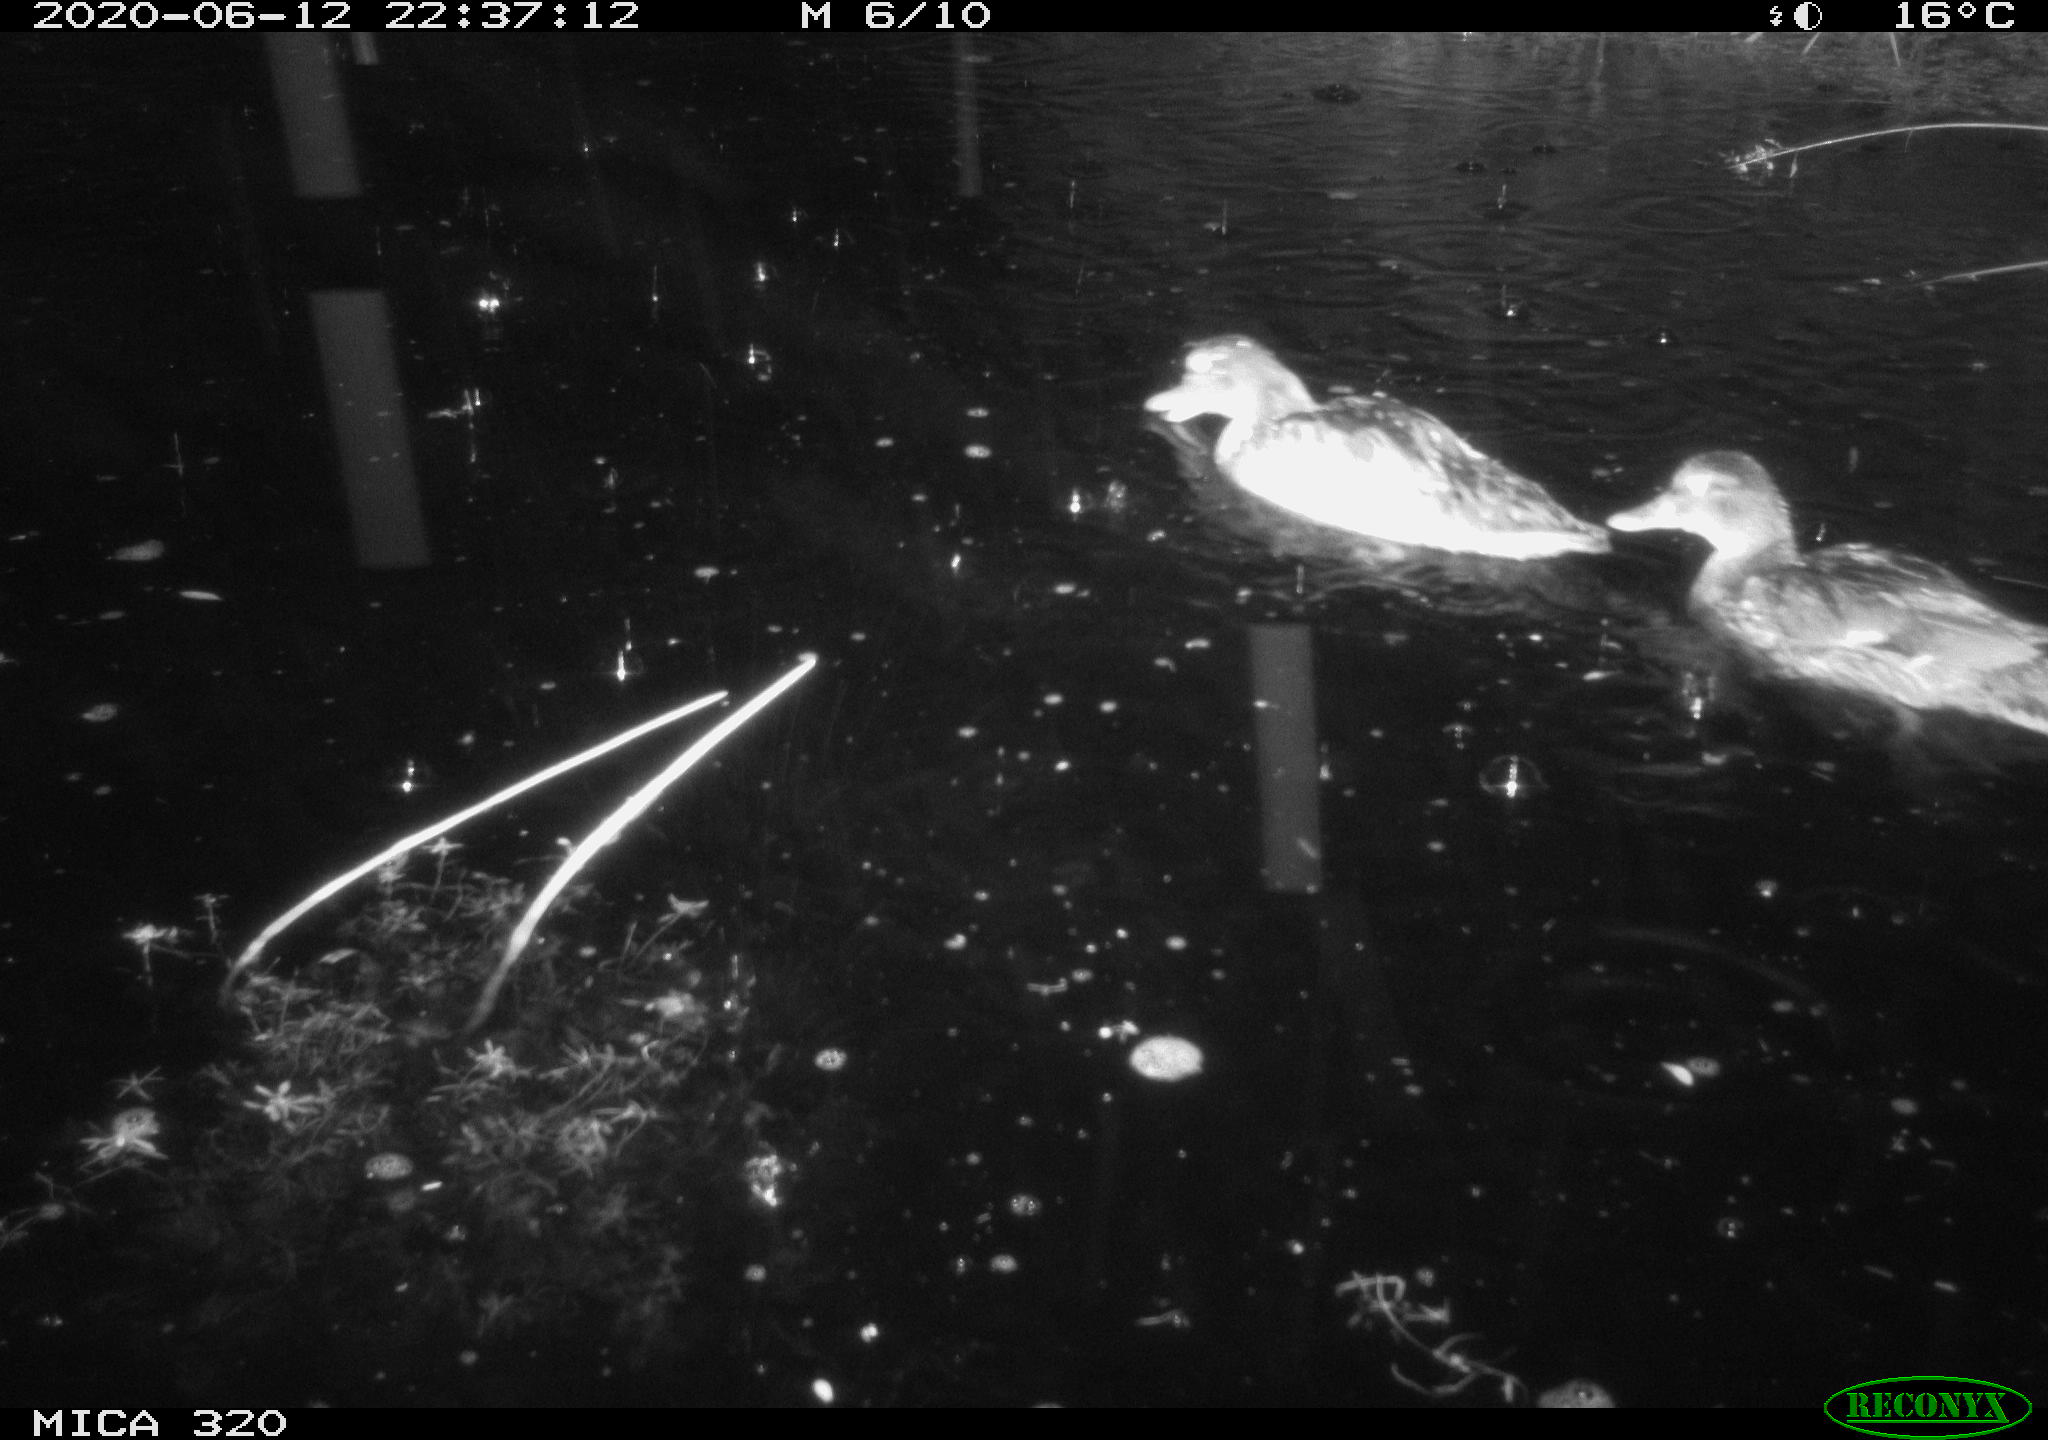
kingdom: Animalia
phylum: Chordata
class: Aves
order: Anseriformes
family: Anatidae
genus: Anas
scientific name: Anas platyrhynchos
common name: Mallard
